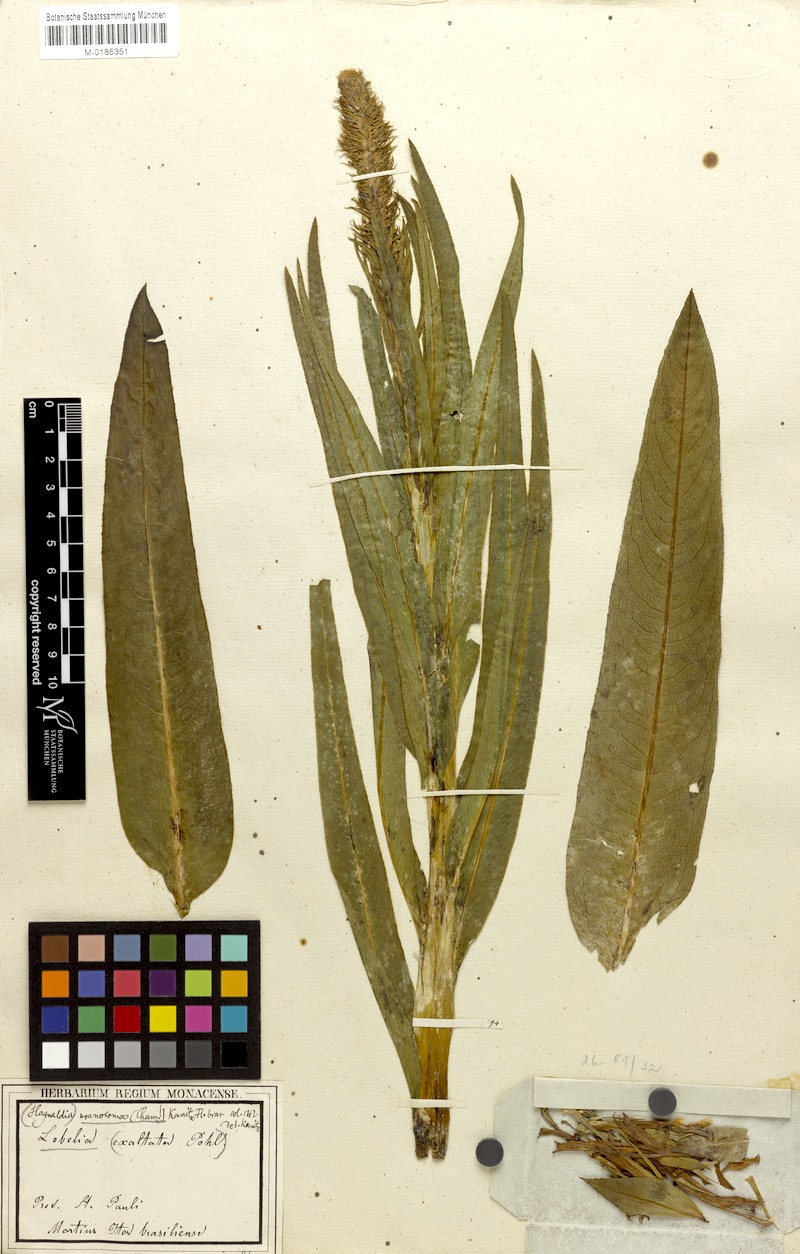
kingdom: Plantae
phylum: Tracheophyta
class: Magnoliopsida
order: Asterales
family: Campanulaceae
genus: Lobelia
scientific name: Lobelia fistulosa
